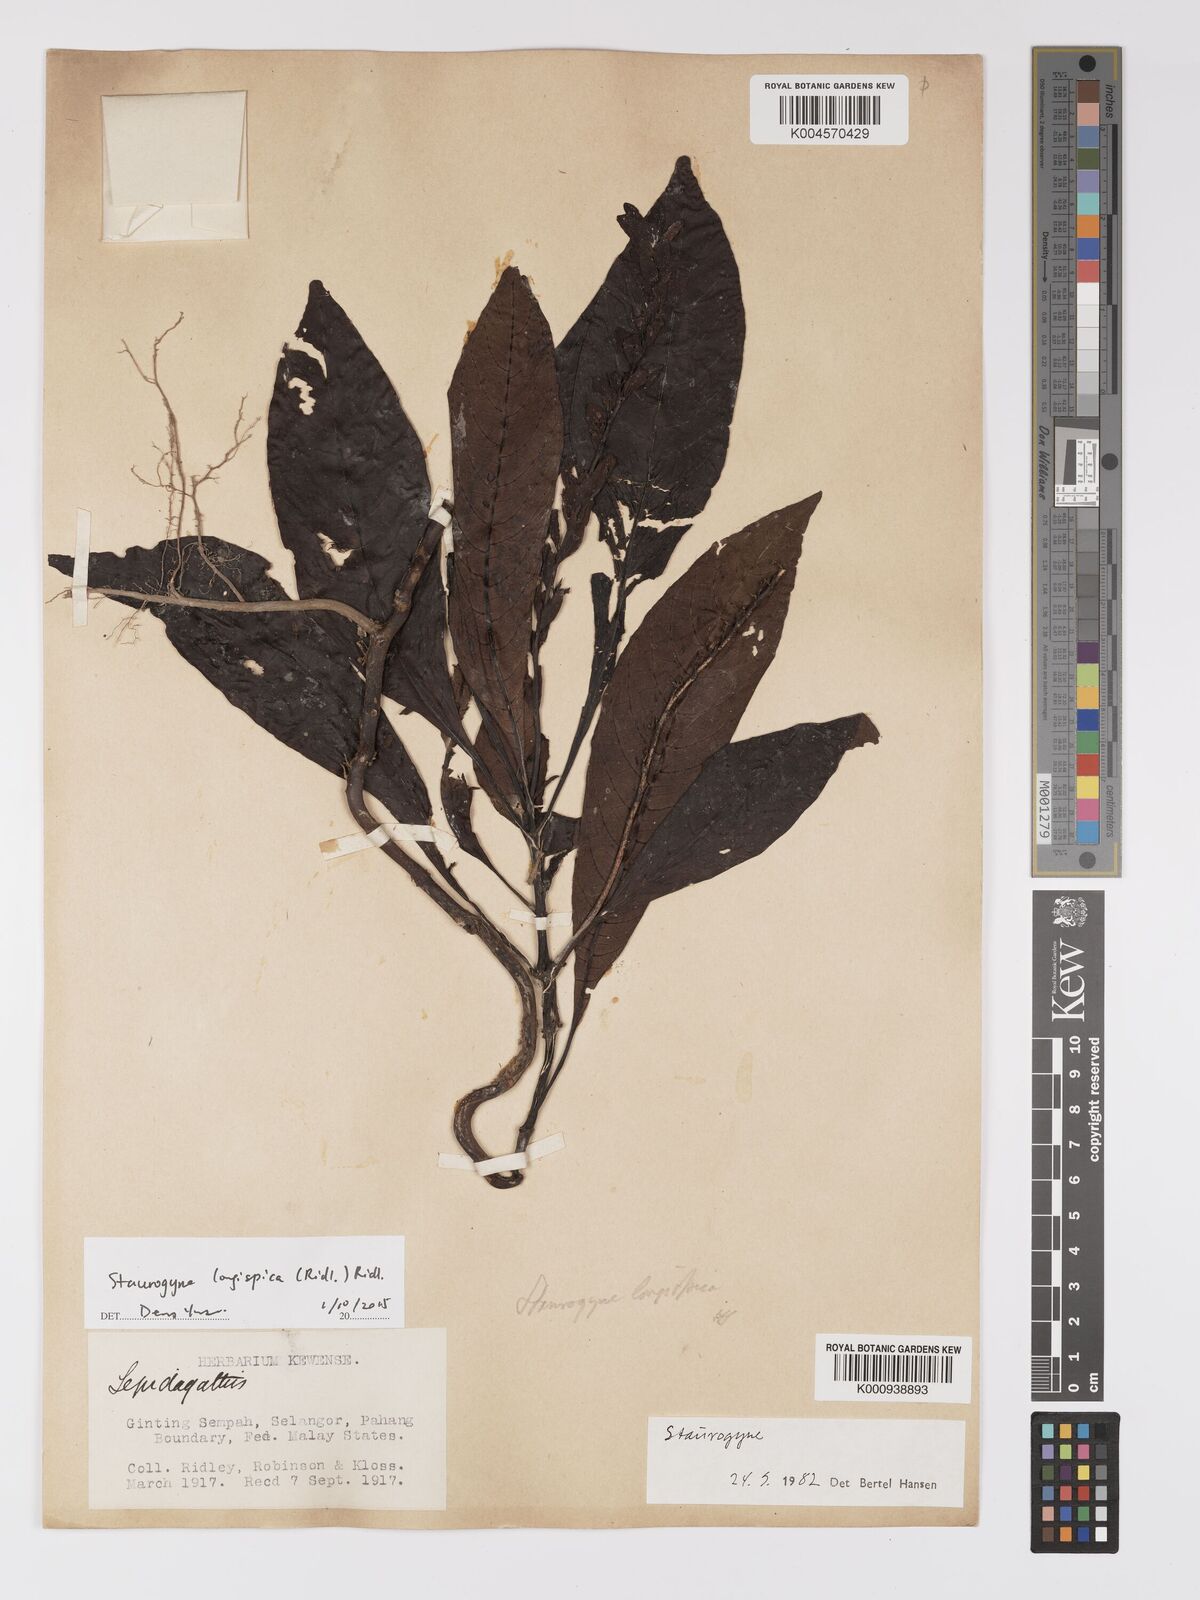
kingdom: Plantae
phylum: Tracheophyta
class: Magnoliopsida
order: Lamiales
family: Acanthaceae
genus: Staurogyne
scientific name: Staurogyne
